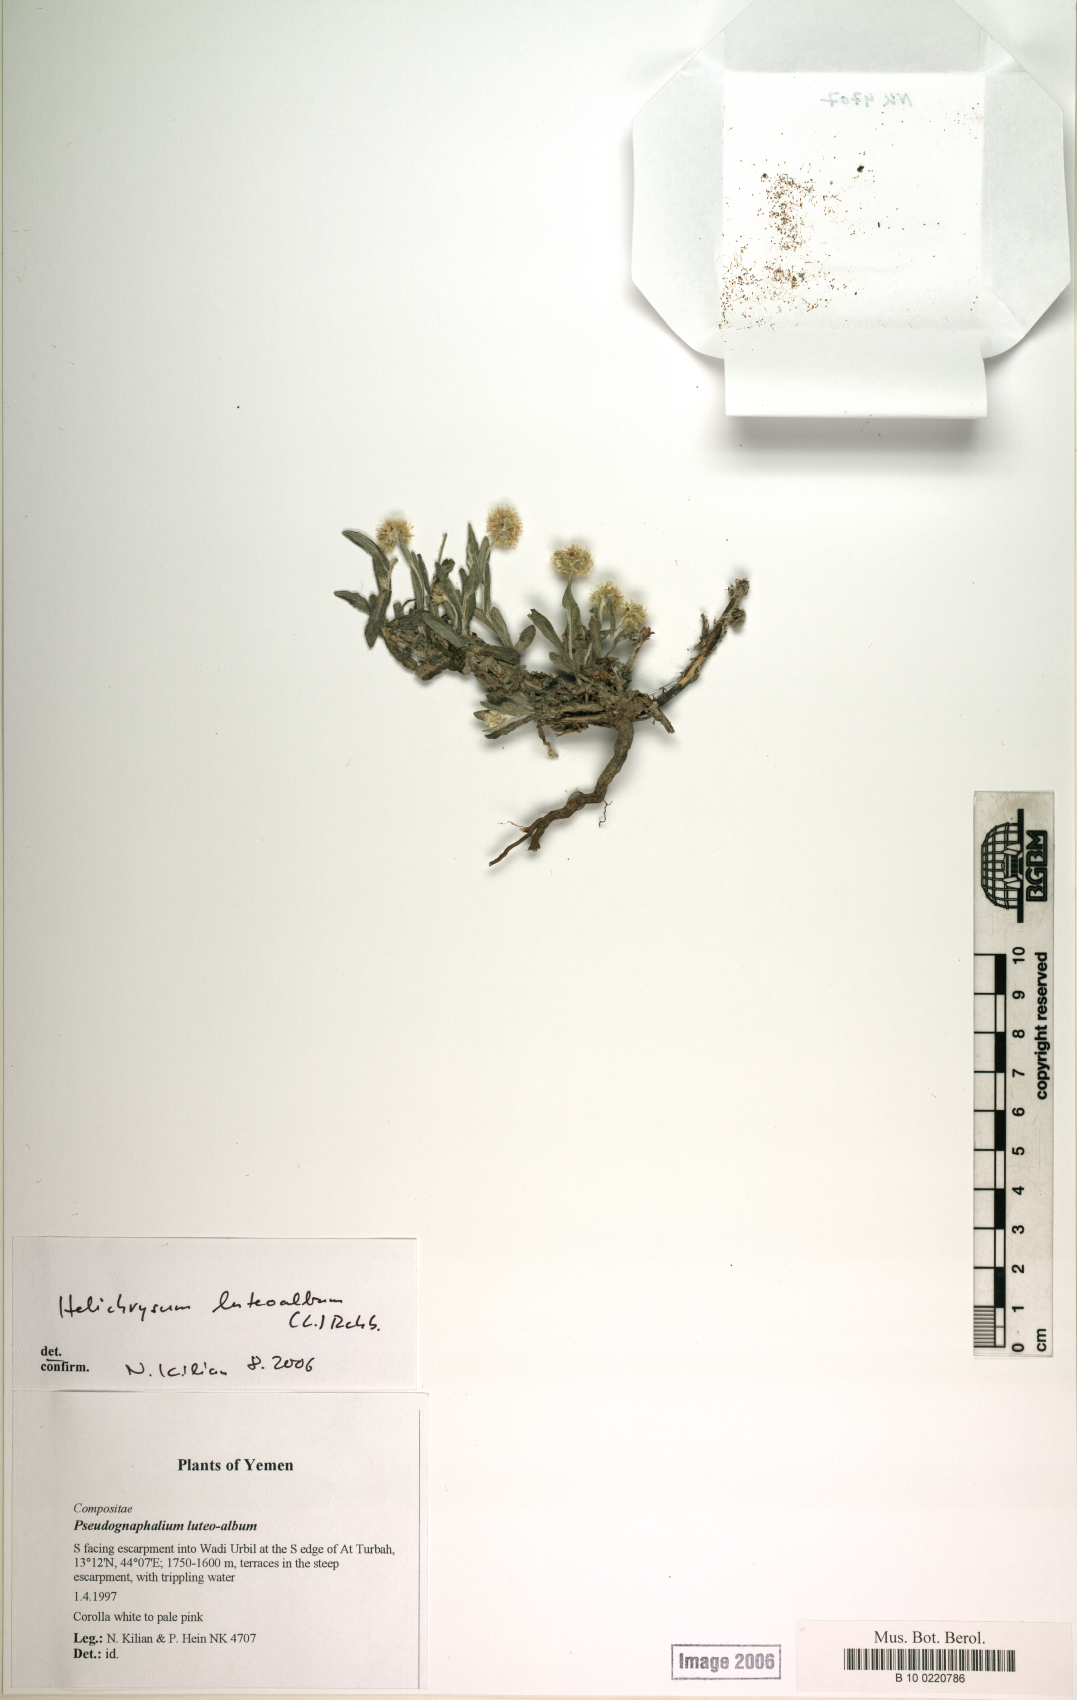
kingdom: Plantae
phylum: Tracheophyta
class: Magnoliopsida
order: Asterales
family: Asteraceae
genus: Helichrysum
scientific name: Helichrysum luteoalbum
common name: Daisy
